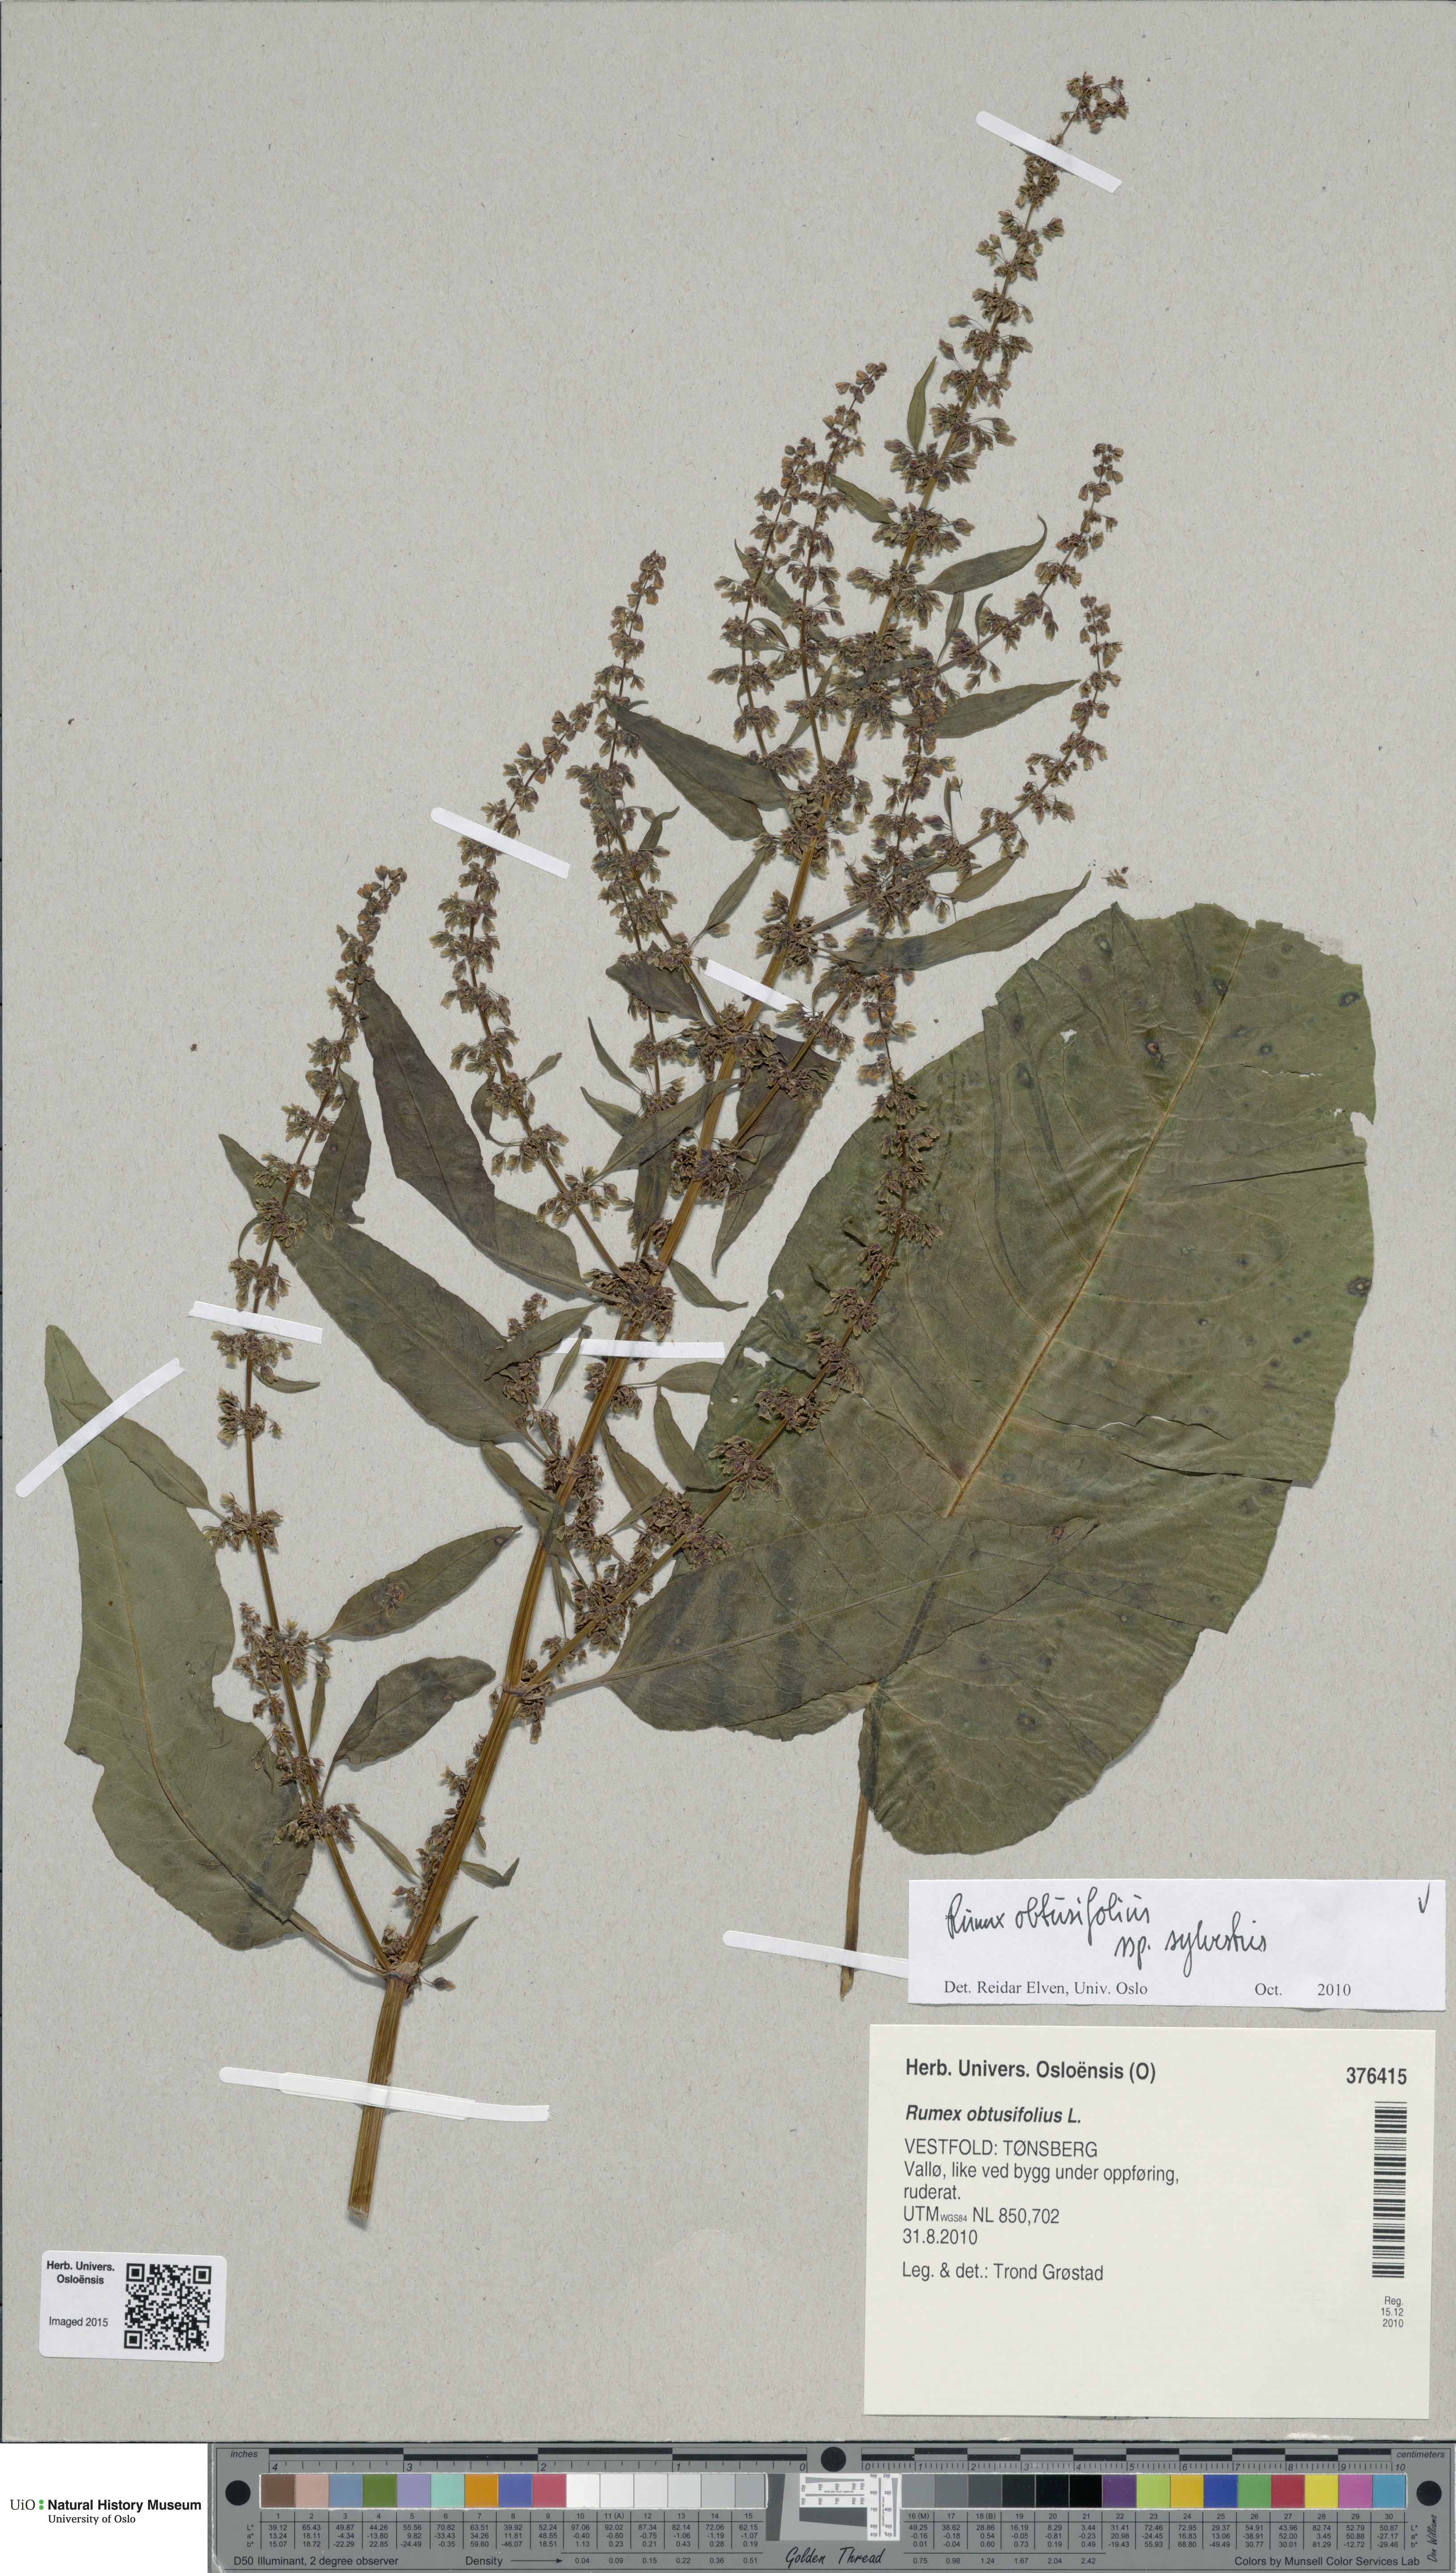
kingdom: Plantae
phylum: Tracheophyta
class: Magnoliopsida
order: Caryophyllales
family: Polygonaceae
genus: Rumex
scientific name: Rumex obtusifolius
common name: Bitter dock
